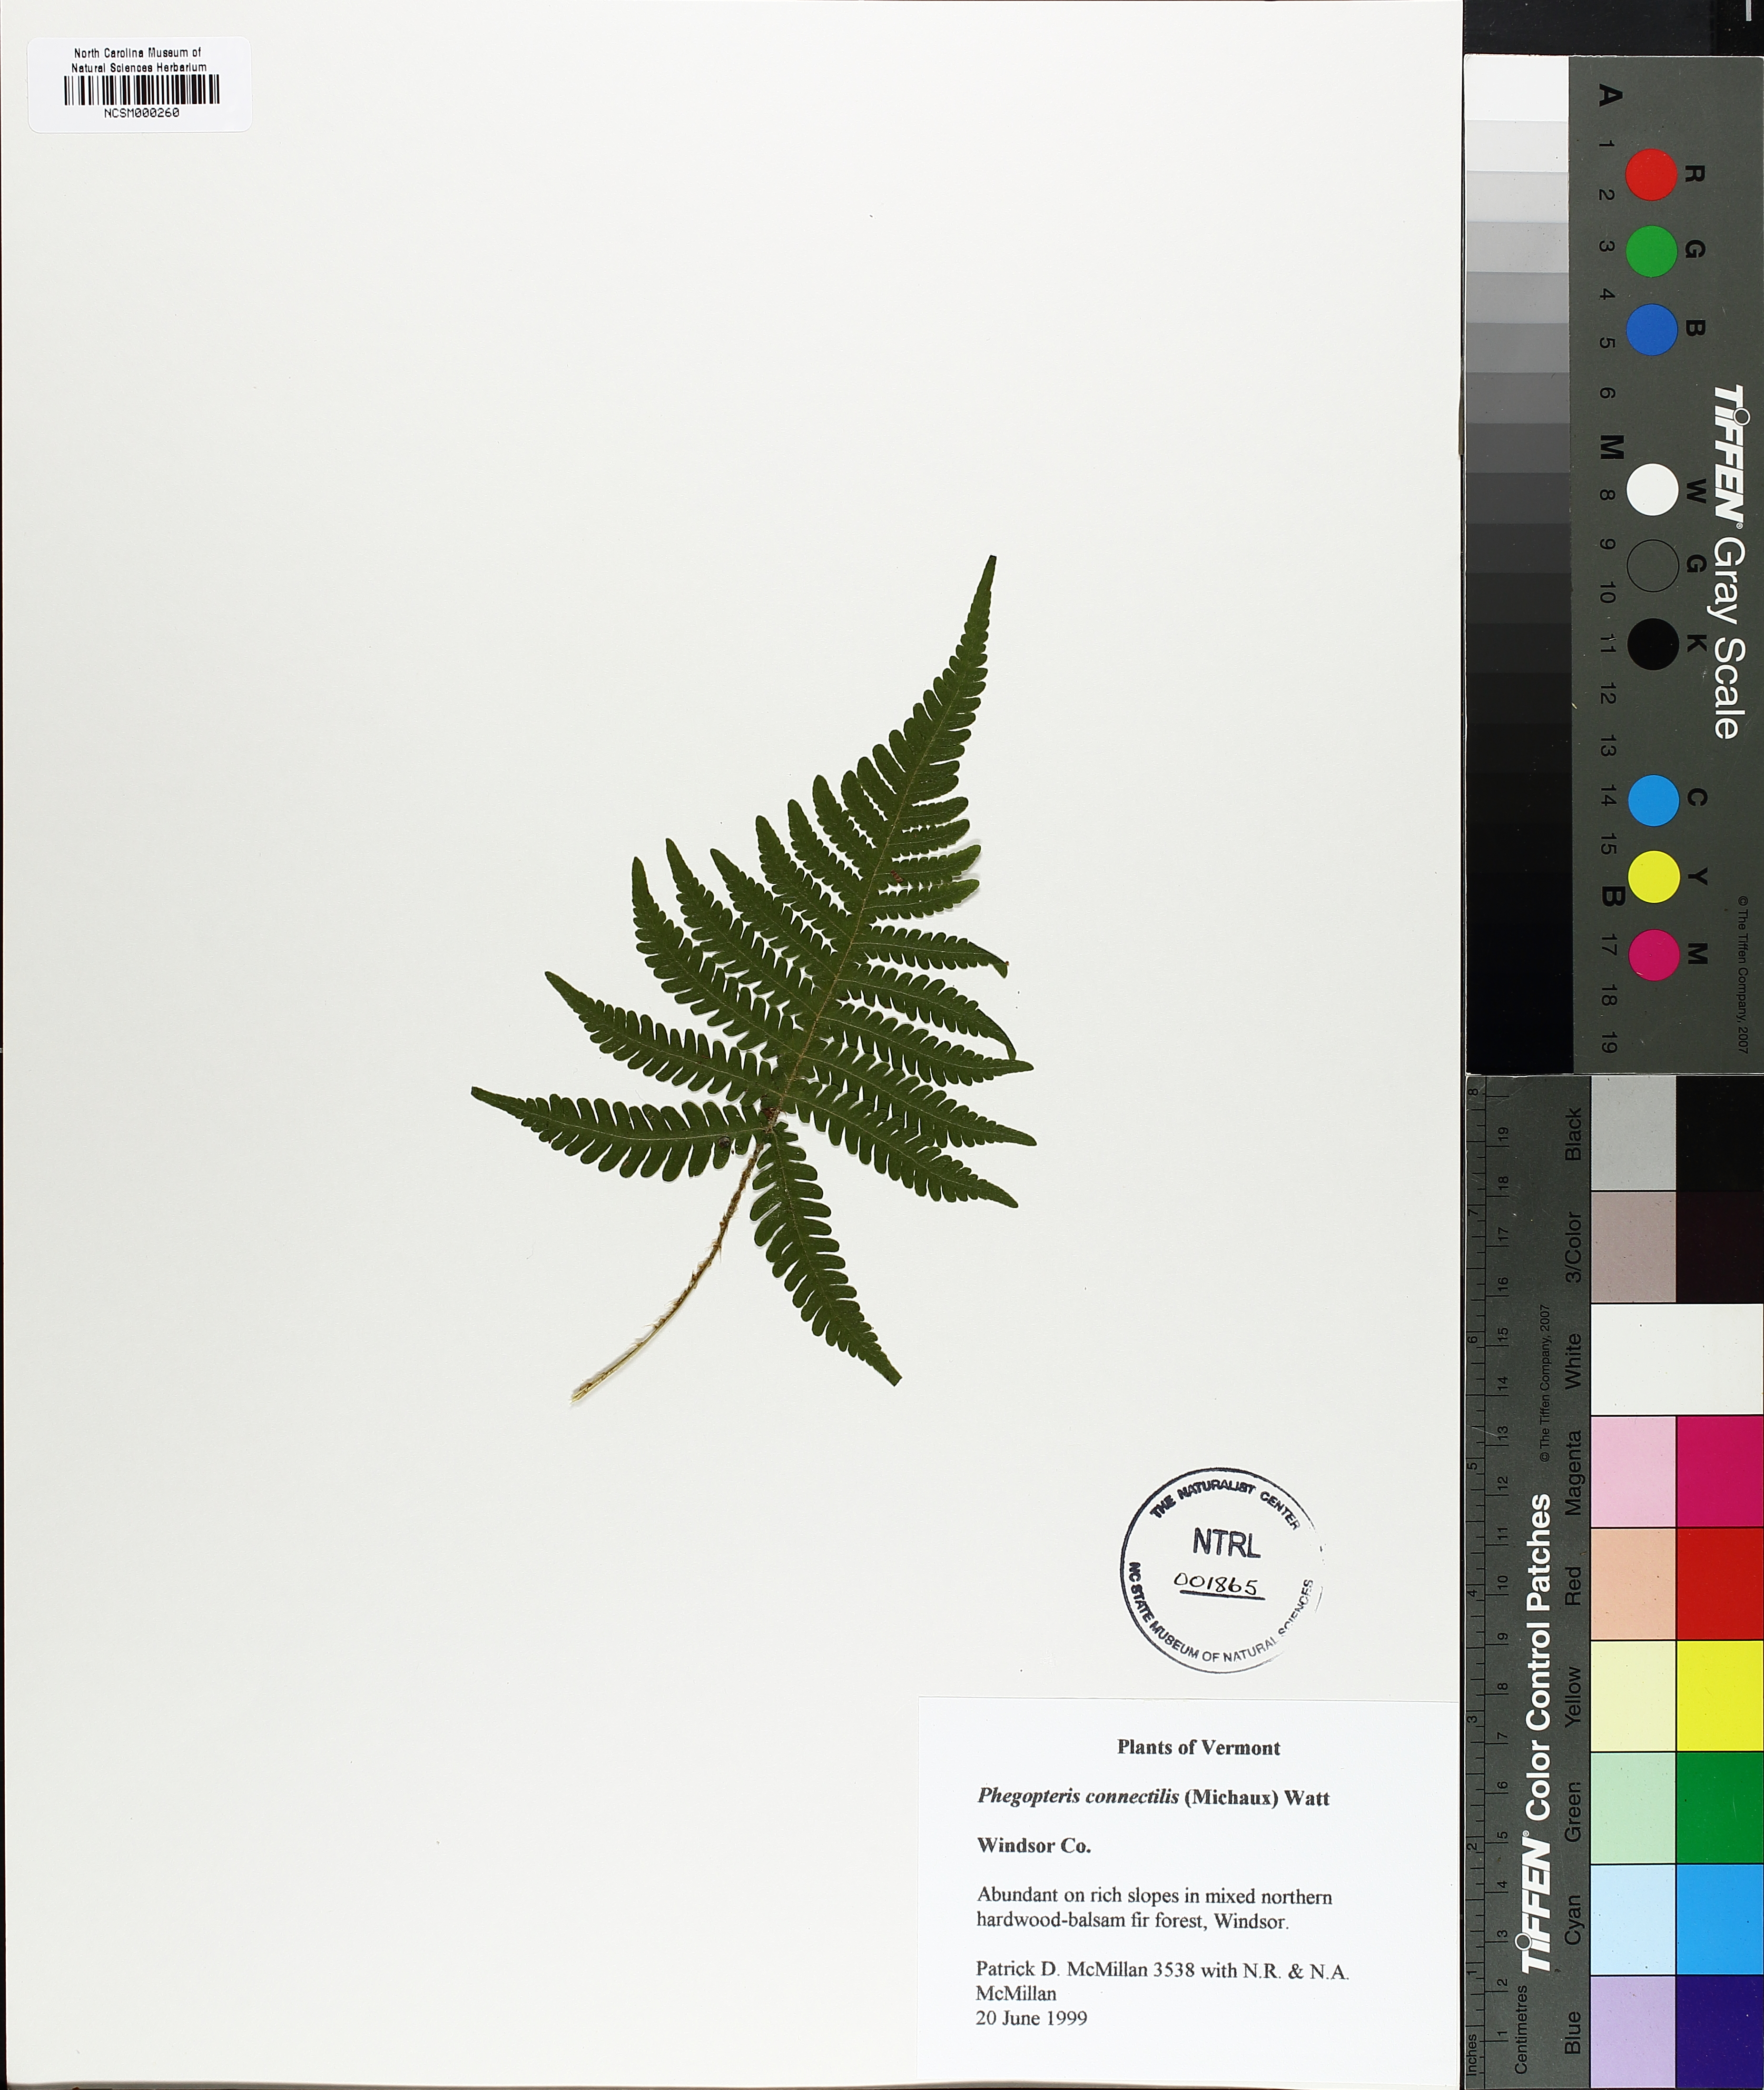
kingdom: Plantae
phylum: Tracheophyta
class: Polypodiopsida
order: Polypodiales
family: Thelypteridaceae
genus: Phegopteris
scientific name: Phegopteris connectilis
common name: Beech fern
